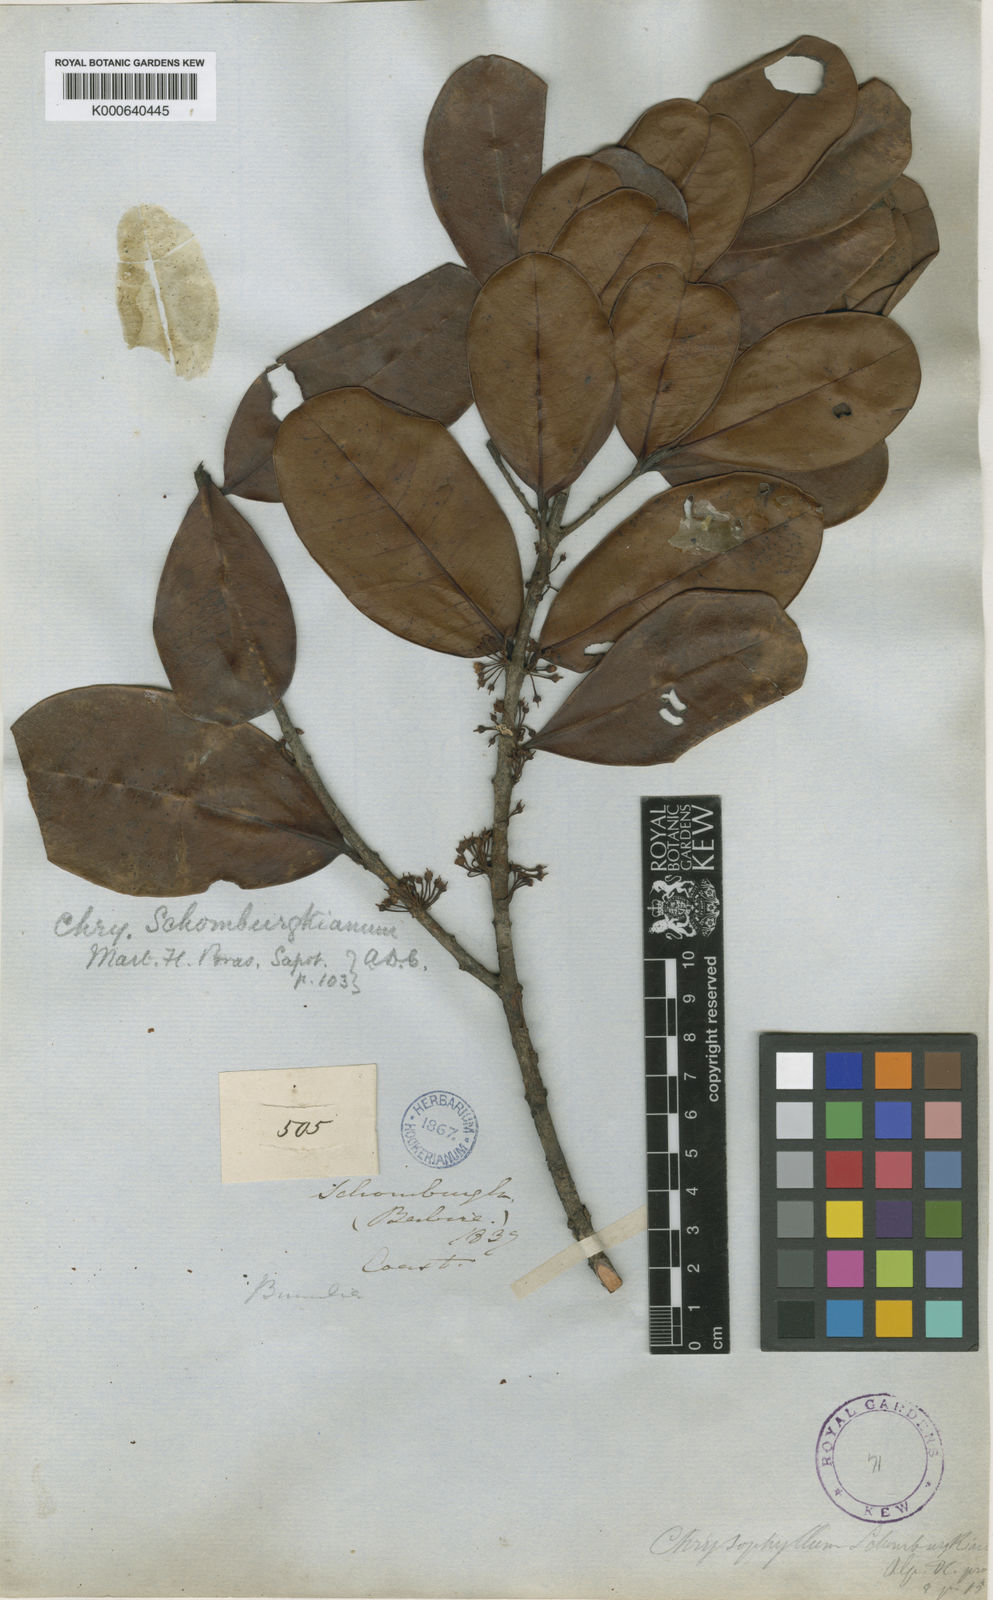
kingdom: Plantae
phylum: Tracheophyta
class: Magnoliopsida
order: Ericales
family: Sapotaceae
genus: Pradosia
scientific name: Pradosia schomburgkiana
